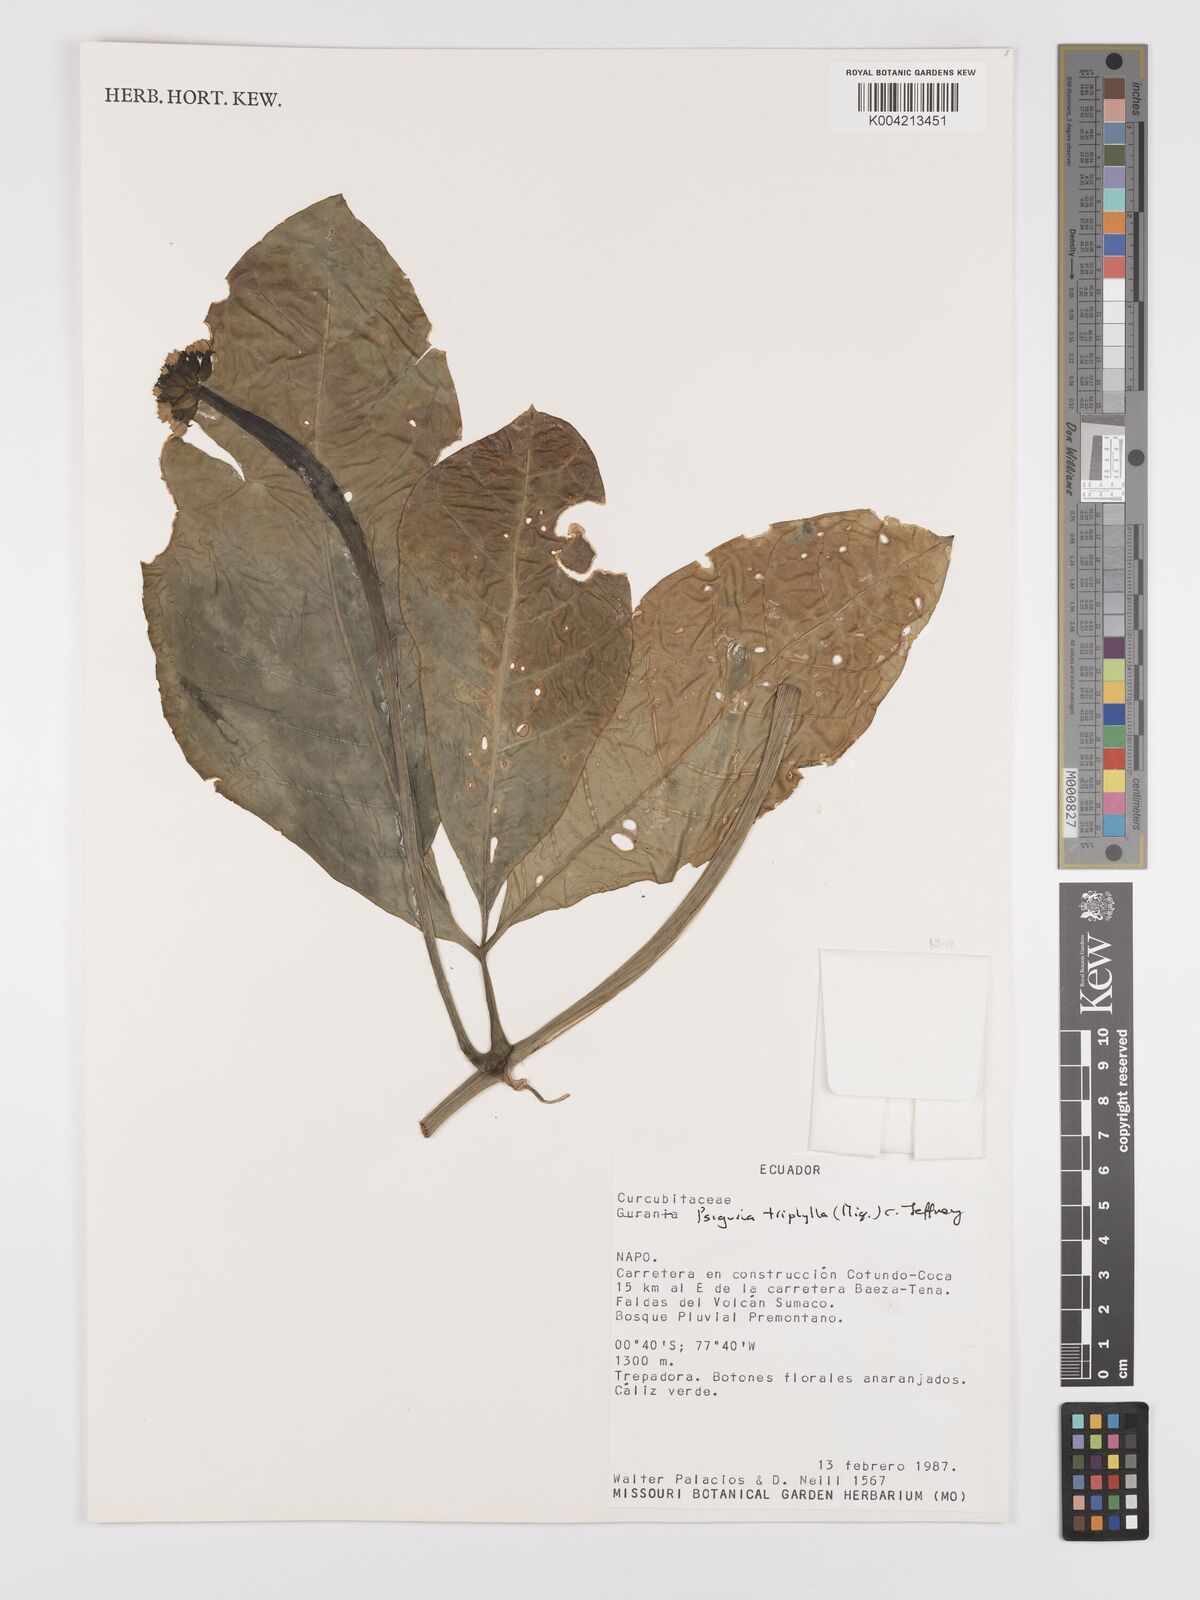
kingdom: Plantae
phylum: Tracheophyta
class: Magnoliopsida
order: Cucurbitales
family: Cucurbitaceae
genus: Psiguria
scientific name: Psiguria triphylla
